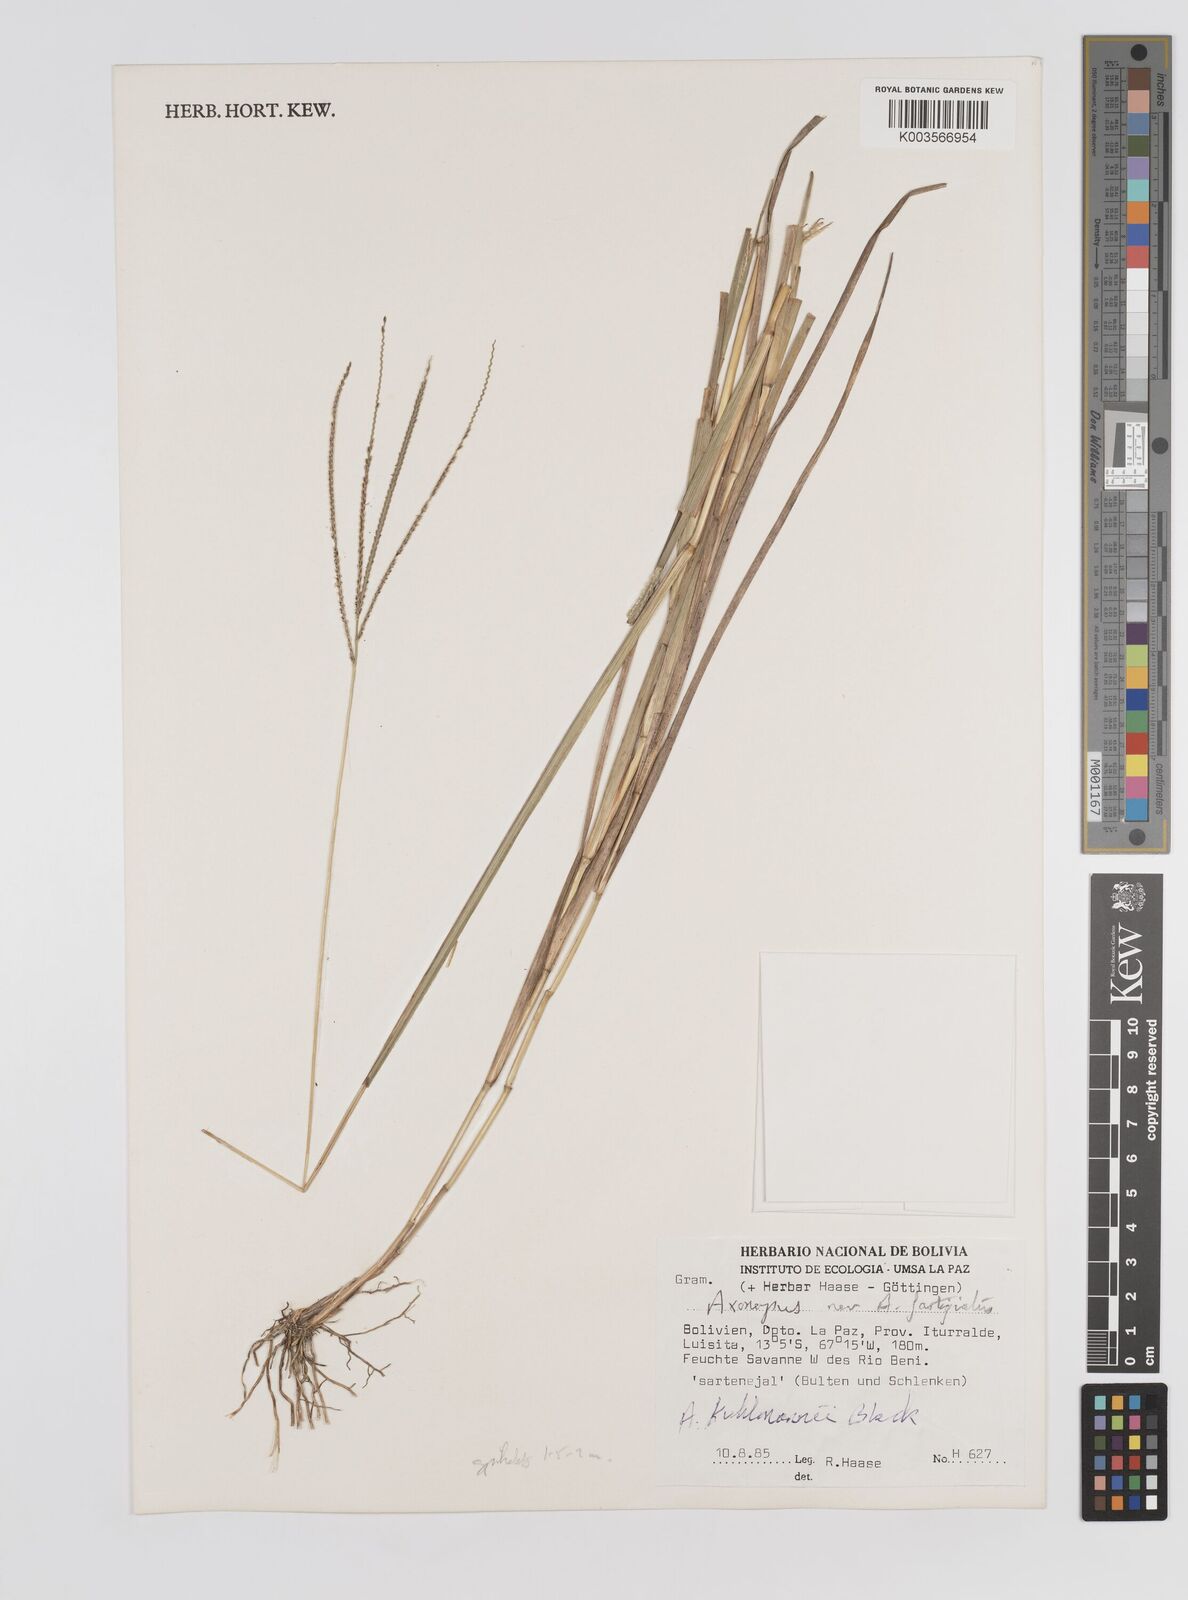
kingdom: Plantae
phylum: Tracheophyta
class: Liliopsida
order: Poales
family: Poaceae
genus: Axonopus
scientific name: Axonopus kuhlmannii
